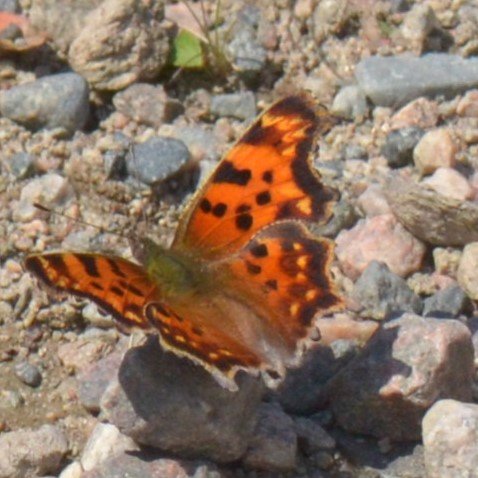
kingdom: Animalia
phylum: Arthropoda
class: Insecta
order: Lepidoptera
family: Nymphalidae
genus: Polygonia
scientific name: Polygonia faunus
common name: Green Comma
